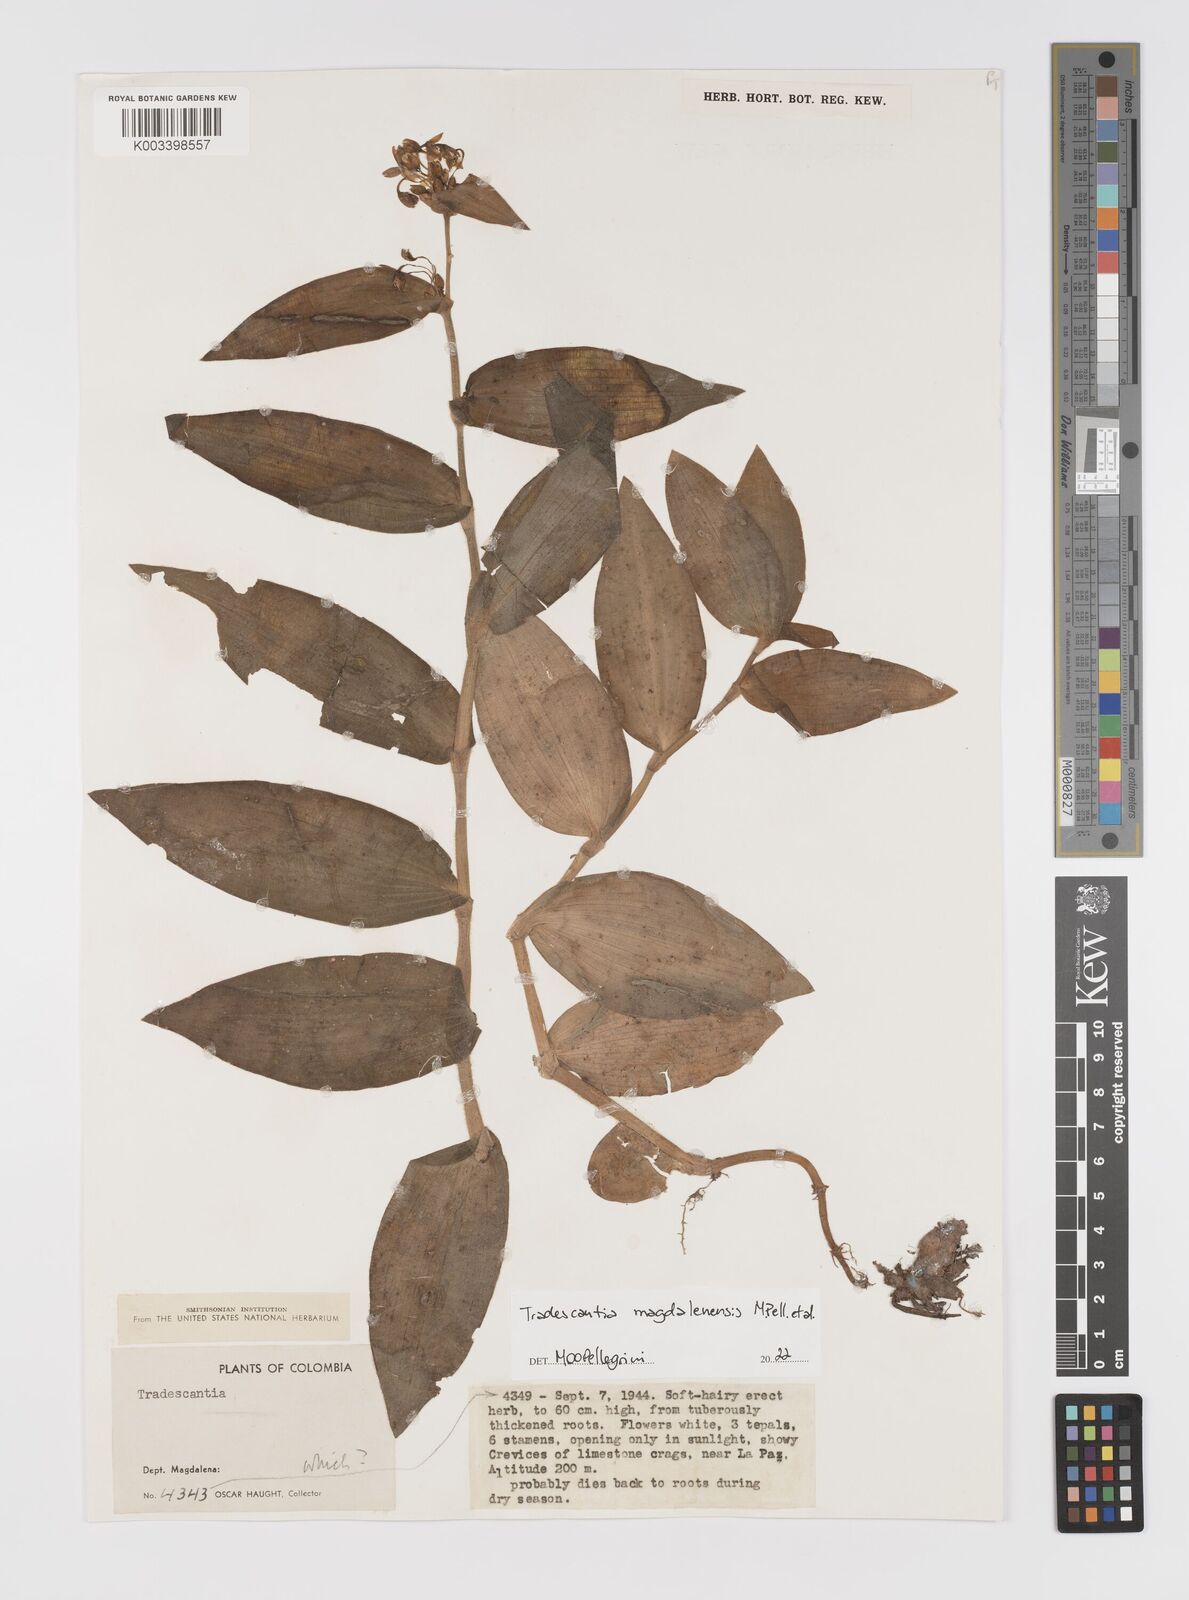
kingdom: Plantae
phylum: Tracheophyta
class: Liliopsida
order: Commelinales
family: Commelinaceae
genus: Tradescantia
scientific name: Tradescantia
